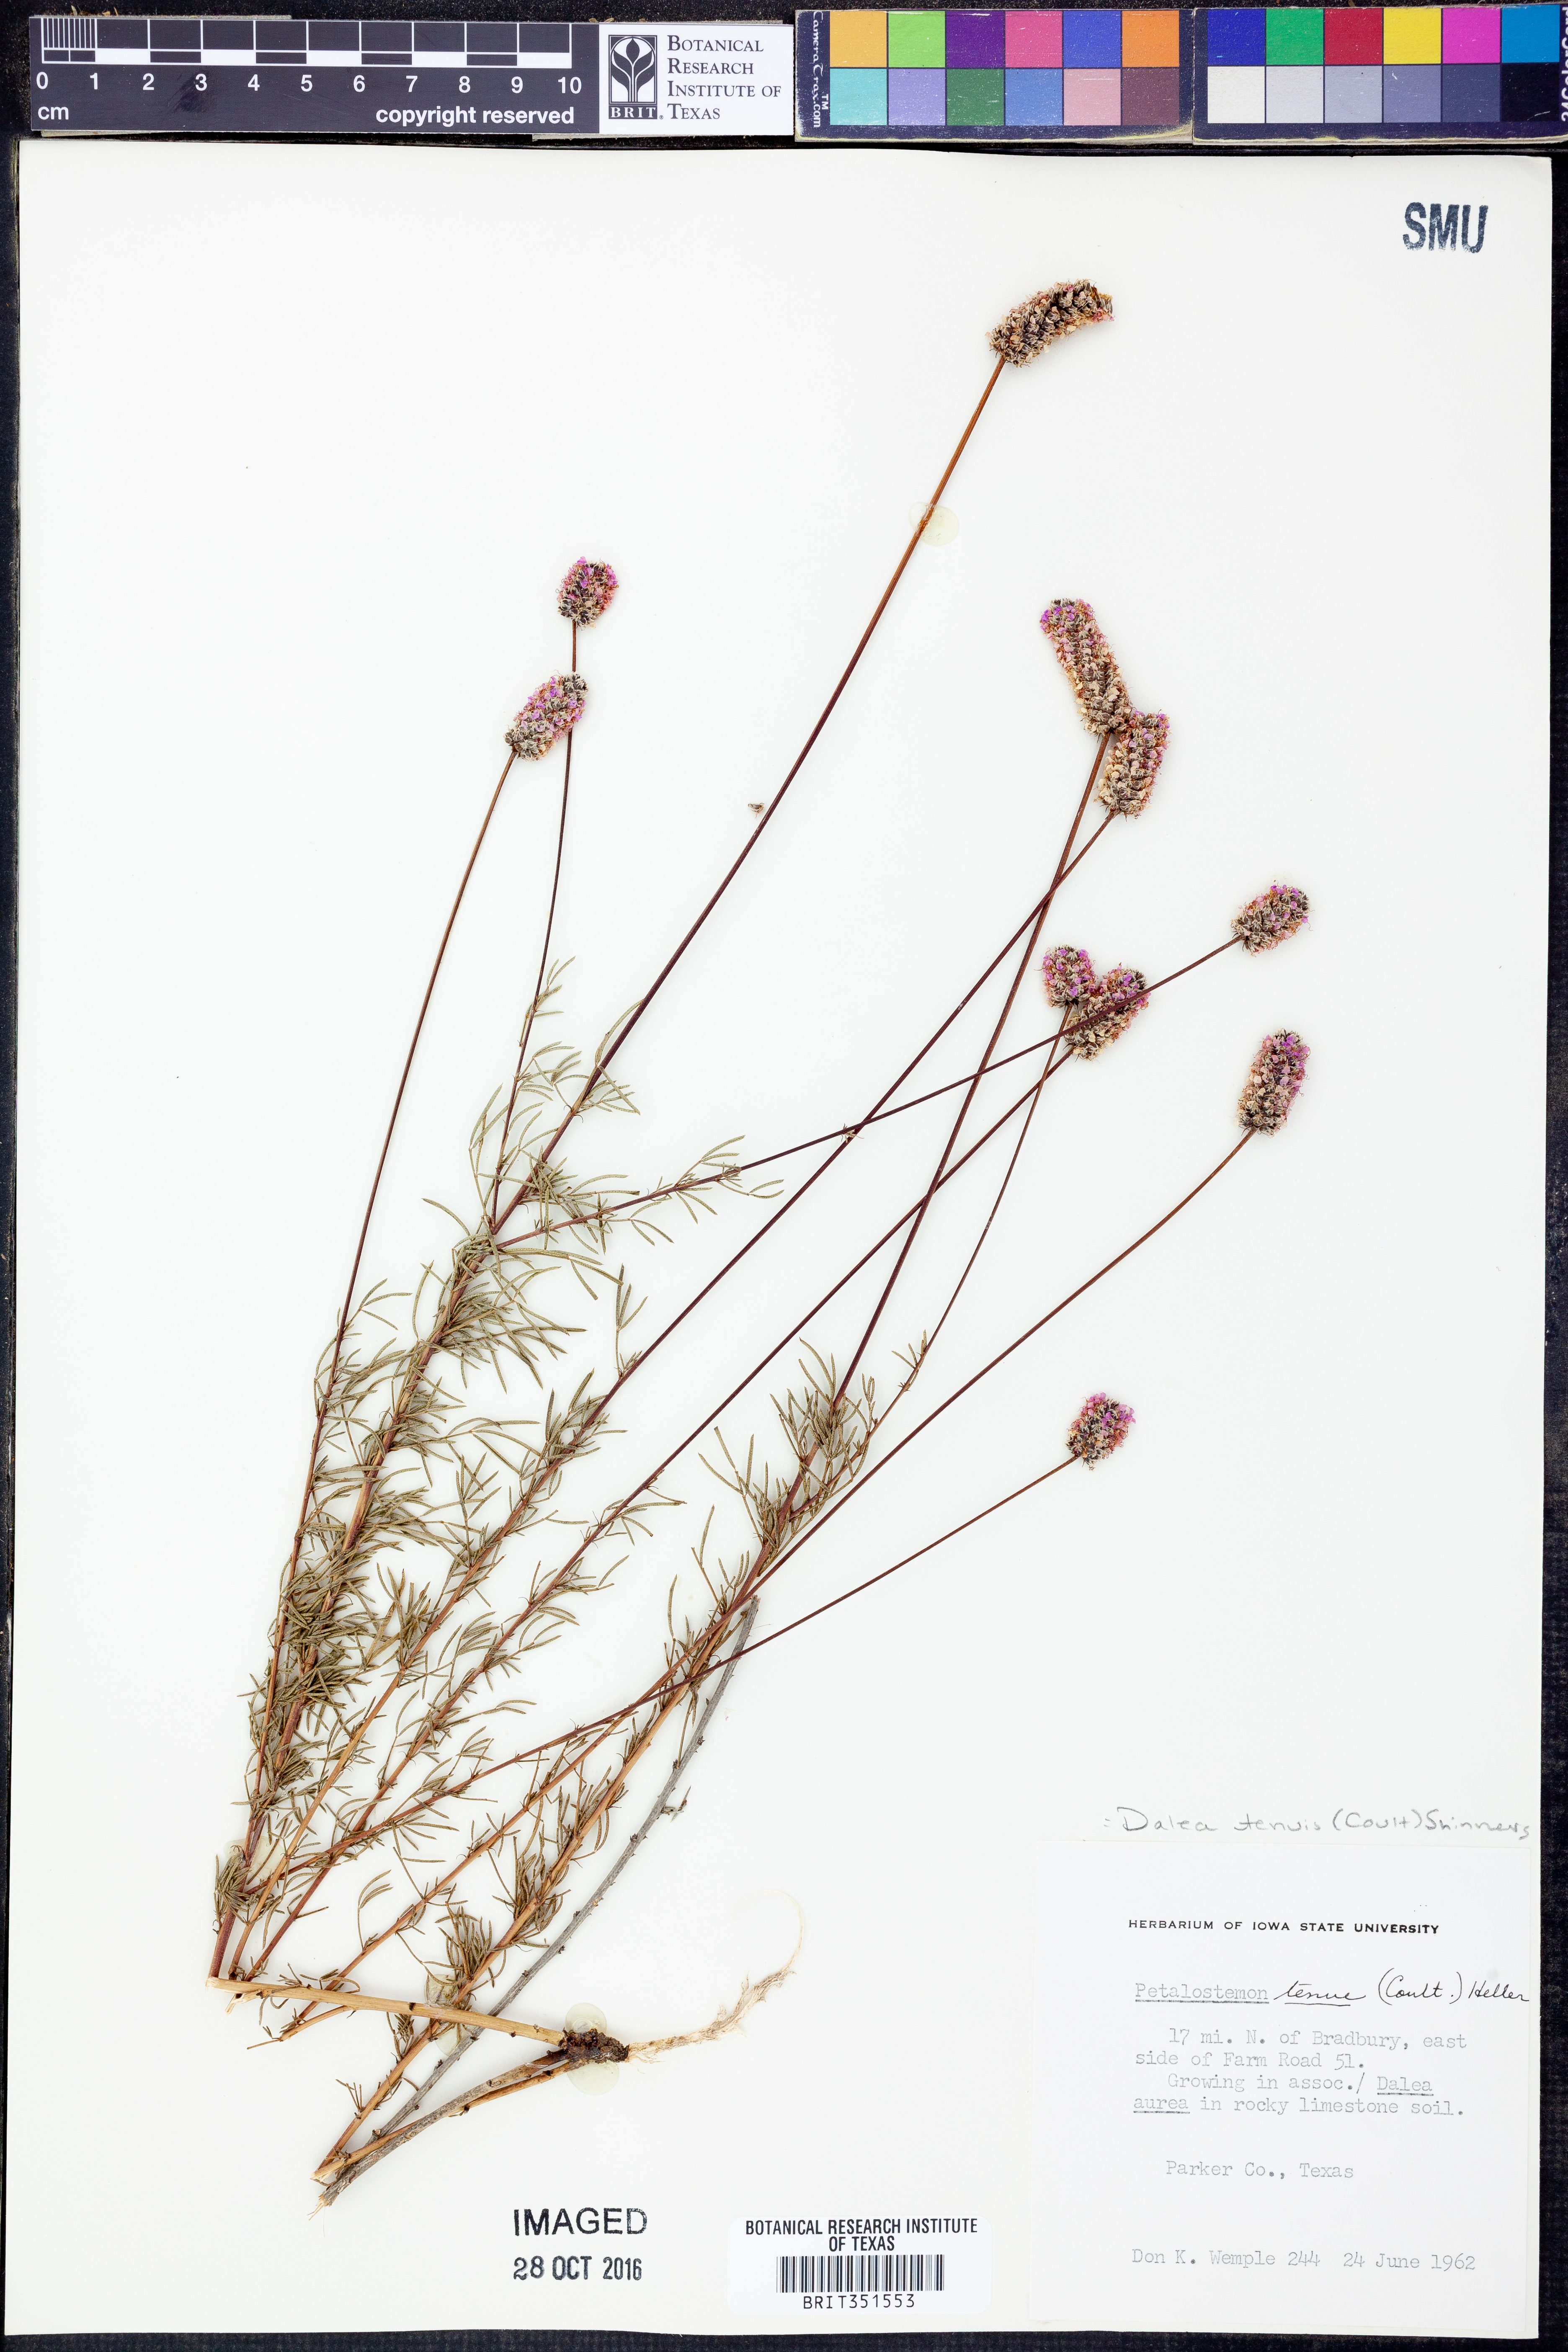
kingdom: Plantae
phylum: Tracheophyta
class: Magnoliopsida
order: Fabales
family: Fabaceae
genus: Dalea
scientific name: Dalea tenuis
